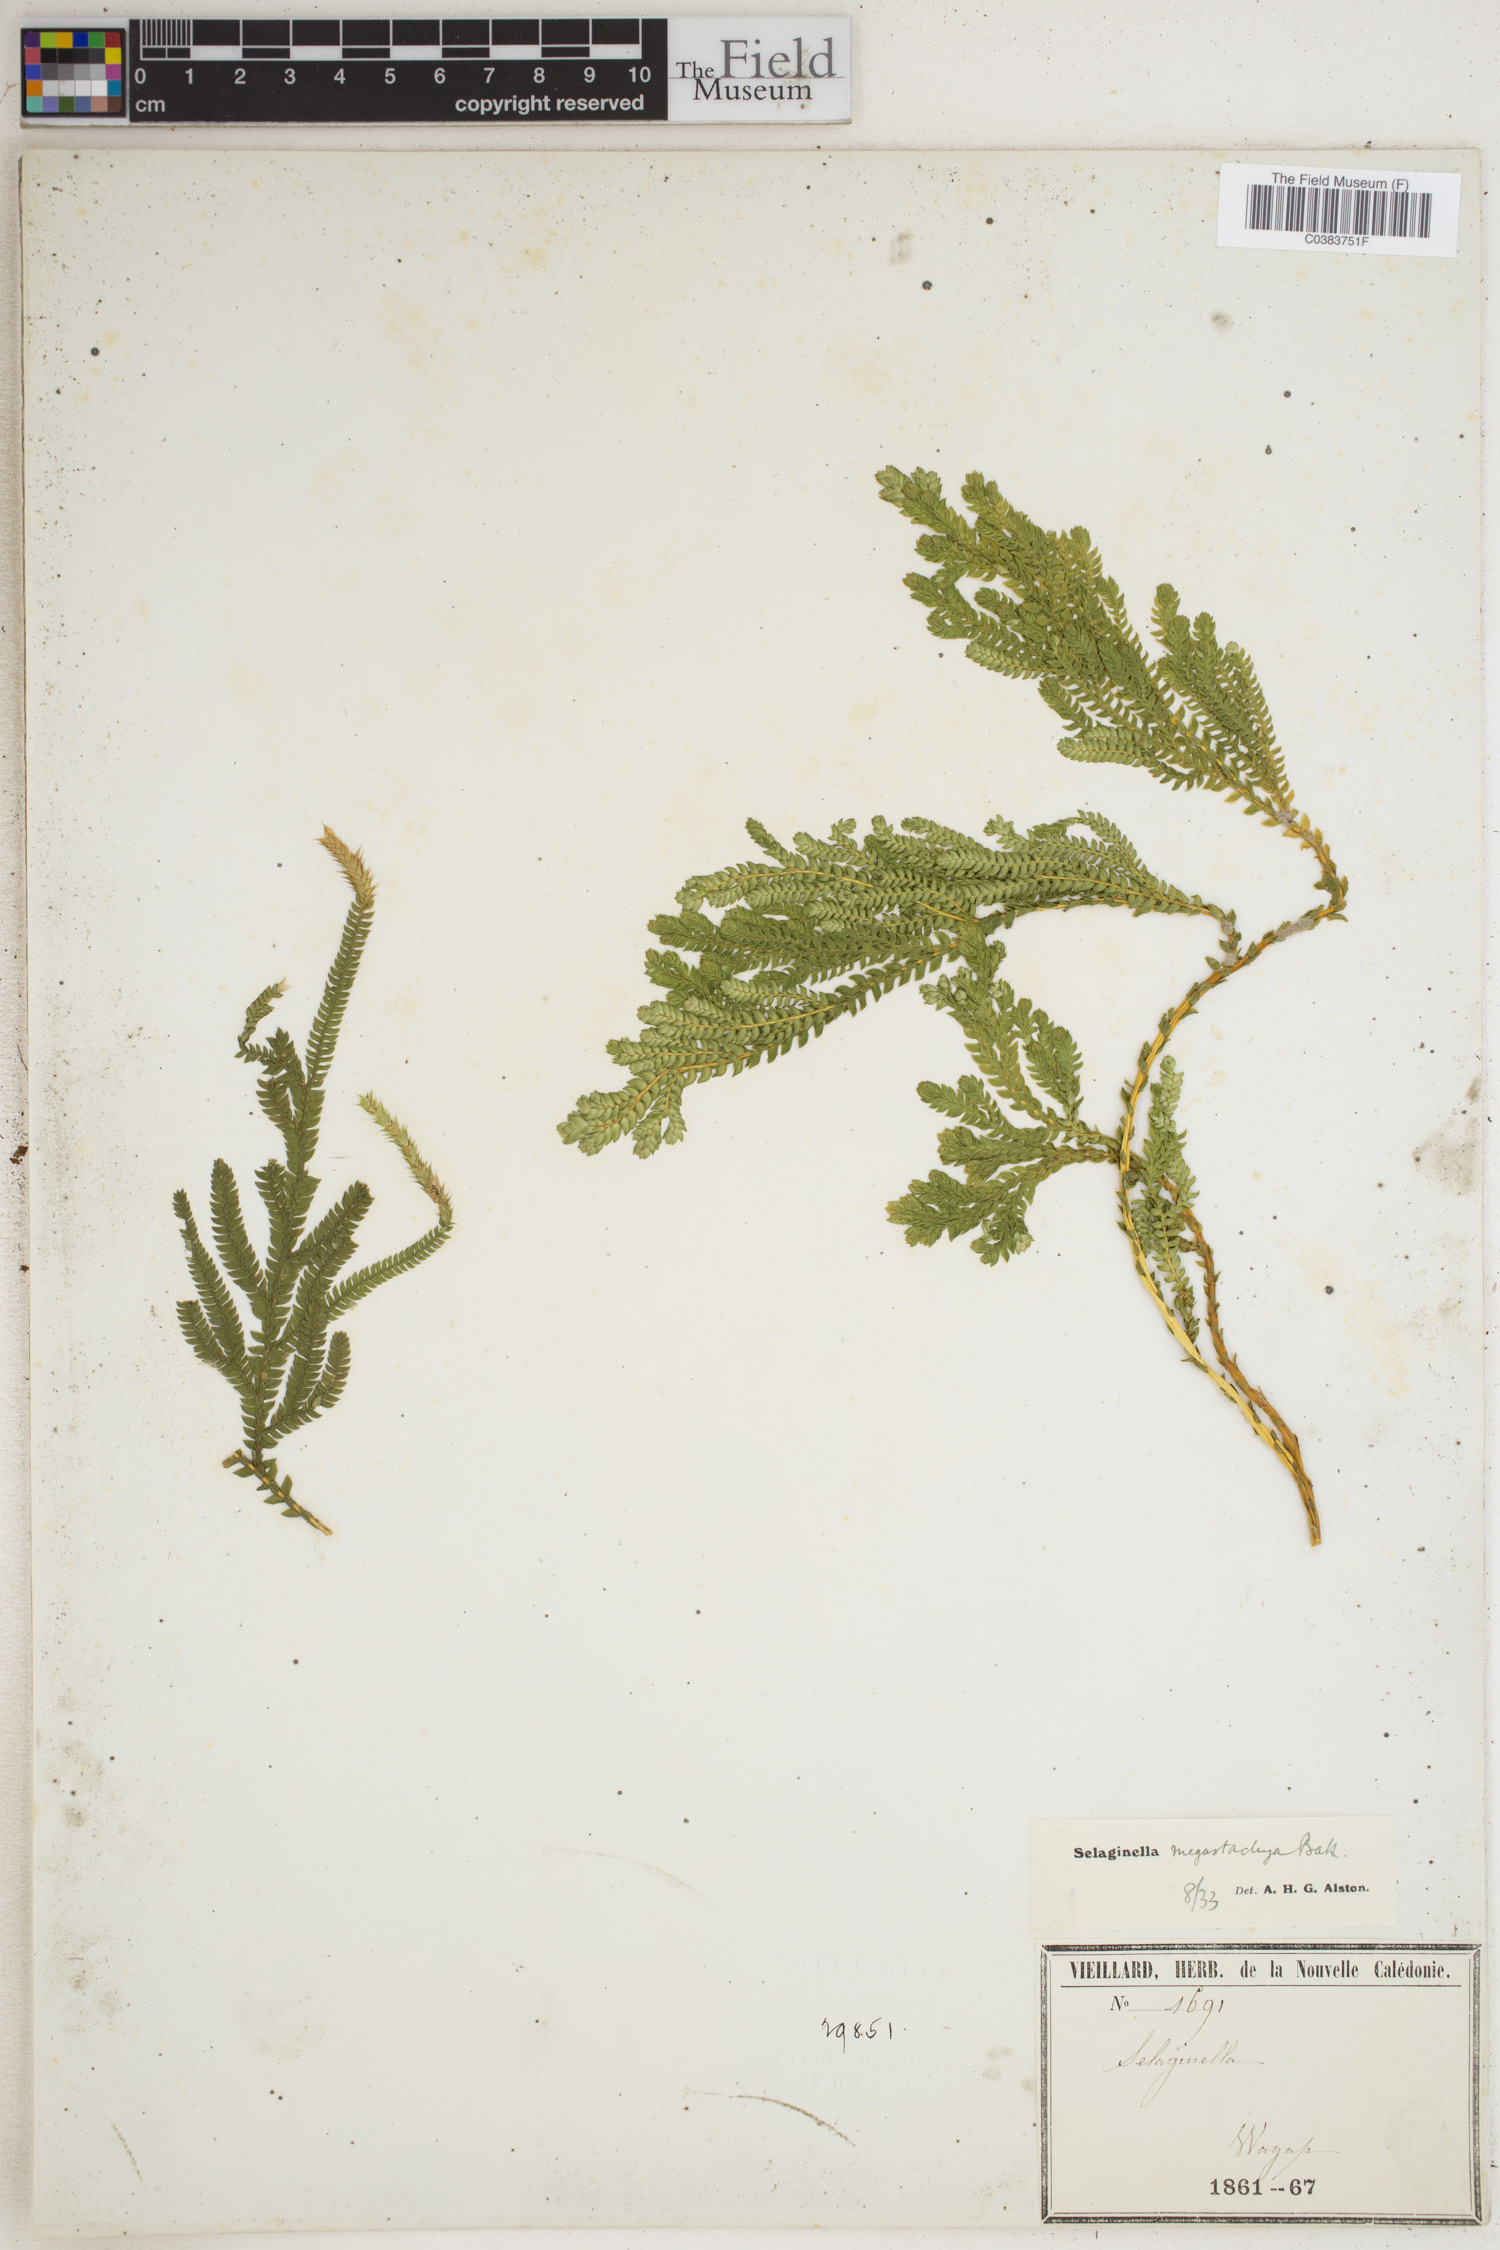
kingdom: Plantae
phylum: Tracheophyta
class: Lycopodiopsida
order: Selaginellales
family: Selaginellaceae
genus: Selaginella
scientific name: Selaginella megastachya
